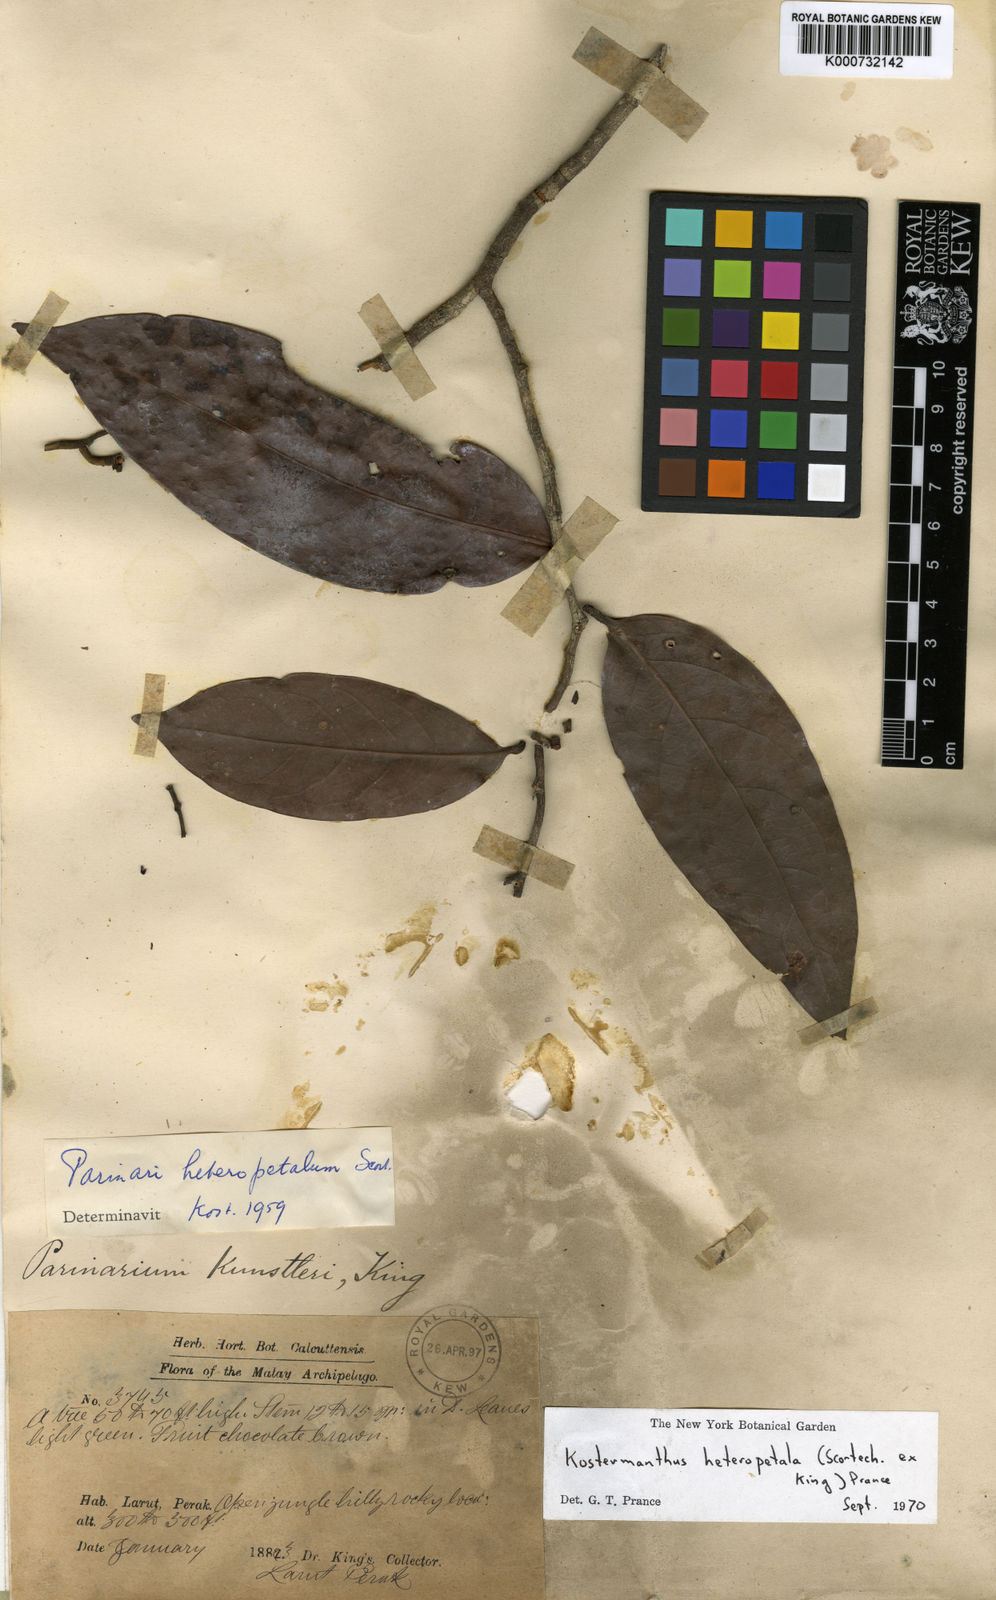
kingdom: Plantae
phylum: Tracheophyta
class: Magnoliopsida
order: Malpighiales
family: Chrysobalanaceae
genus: Kostermanthus
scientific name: Kostermanthus heteropetalus
